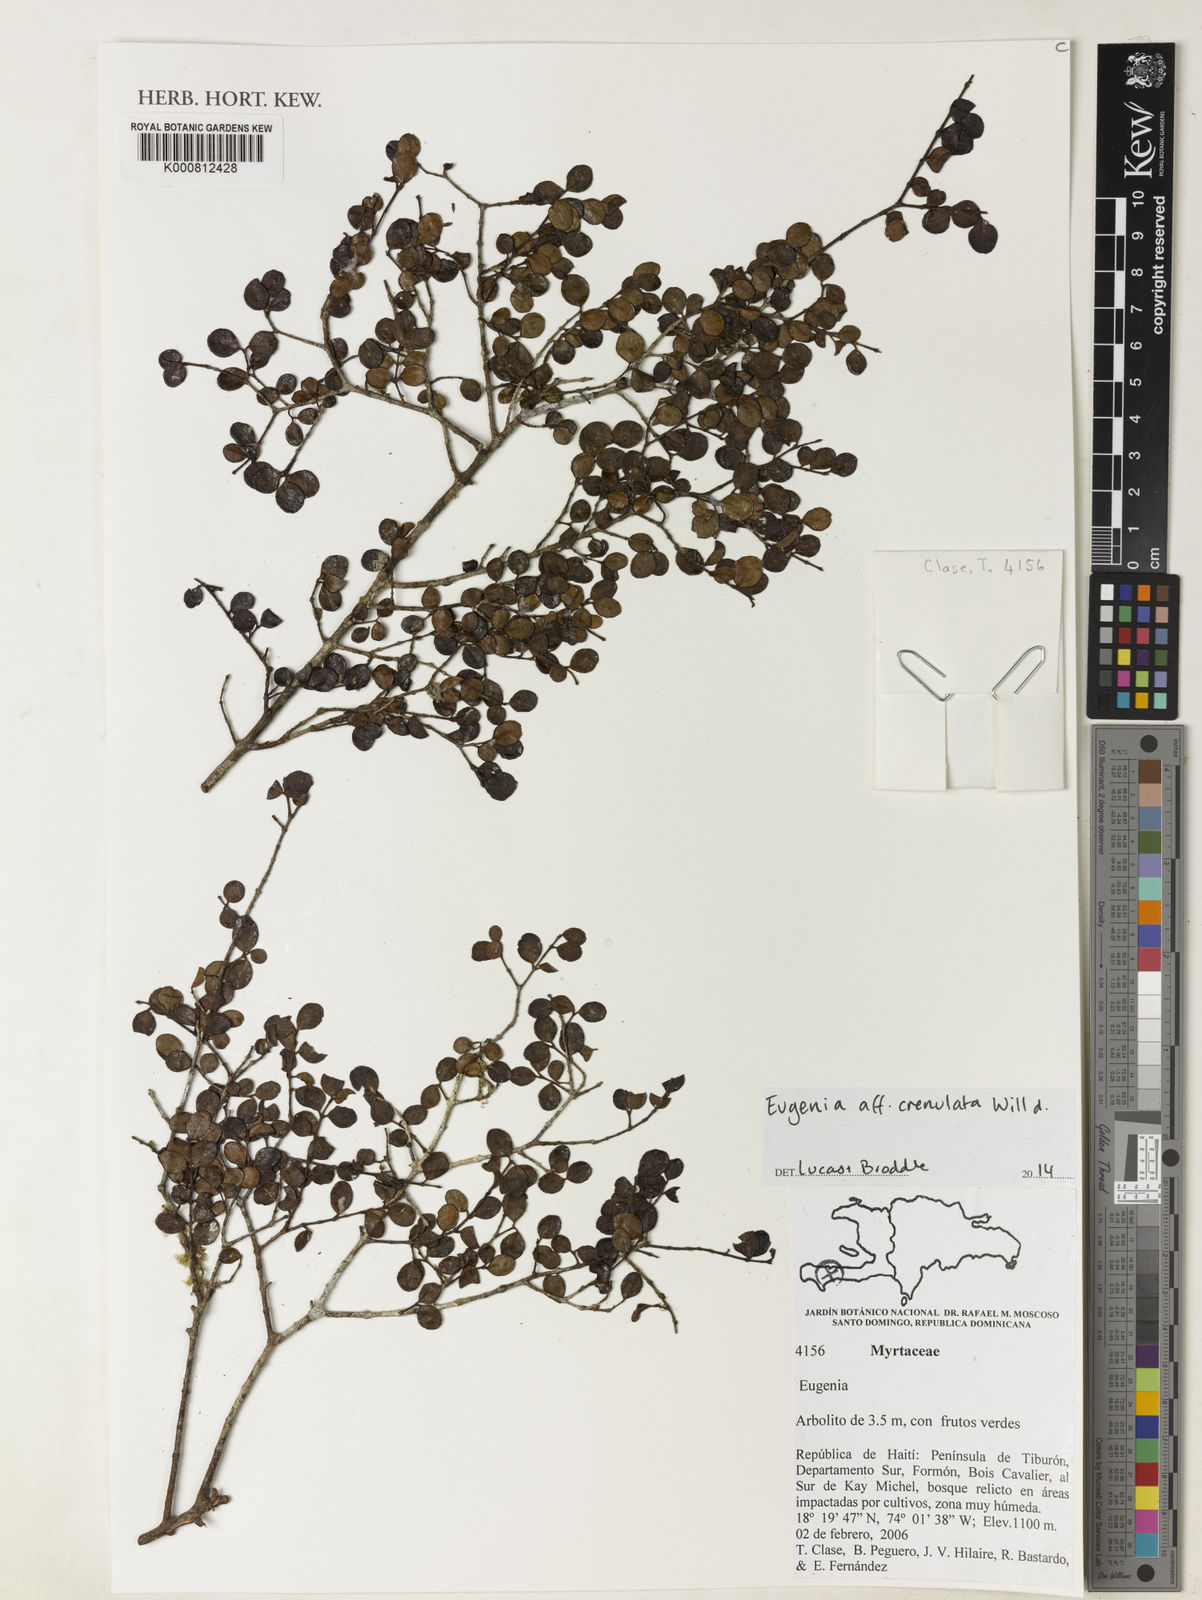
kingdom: Plantae
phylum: Tracheophyta
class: Magnoliopsida
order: Myrtales
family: Myrtaceae
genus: Eugenia
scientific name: Eugenia crenulata
